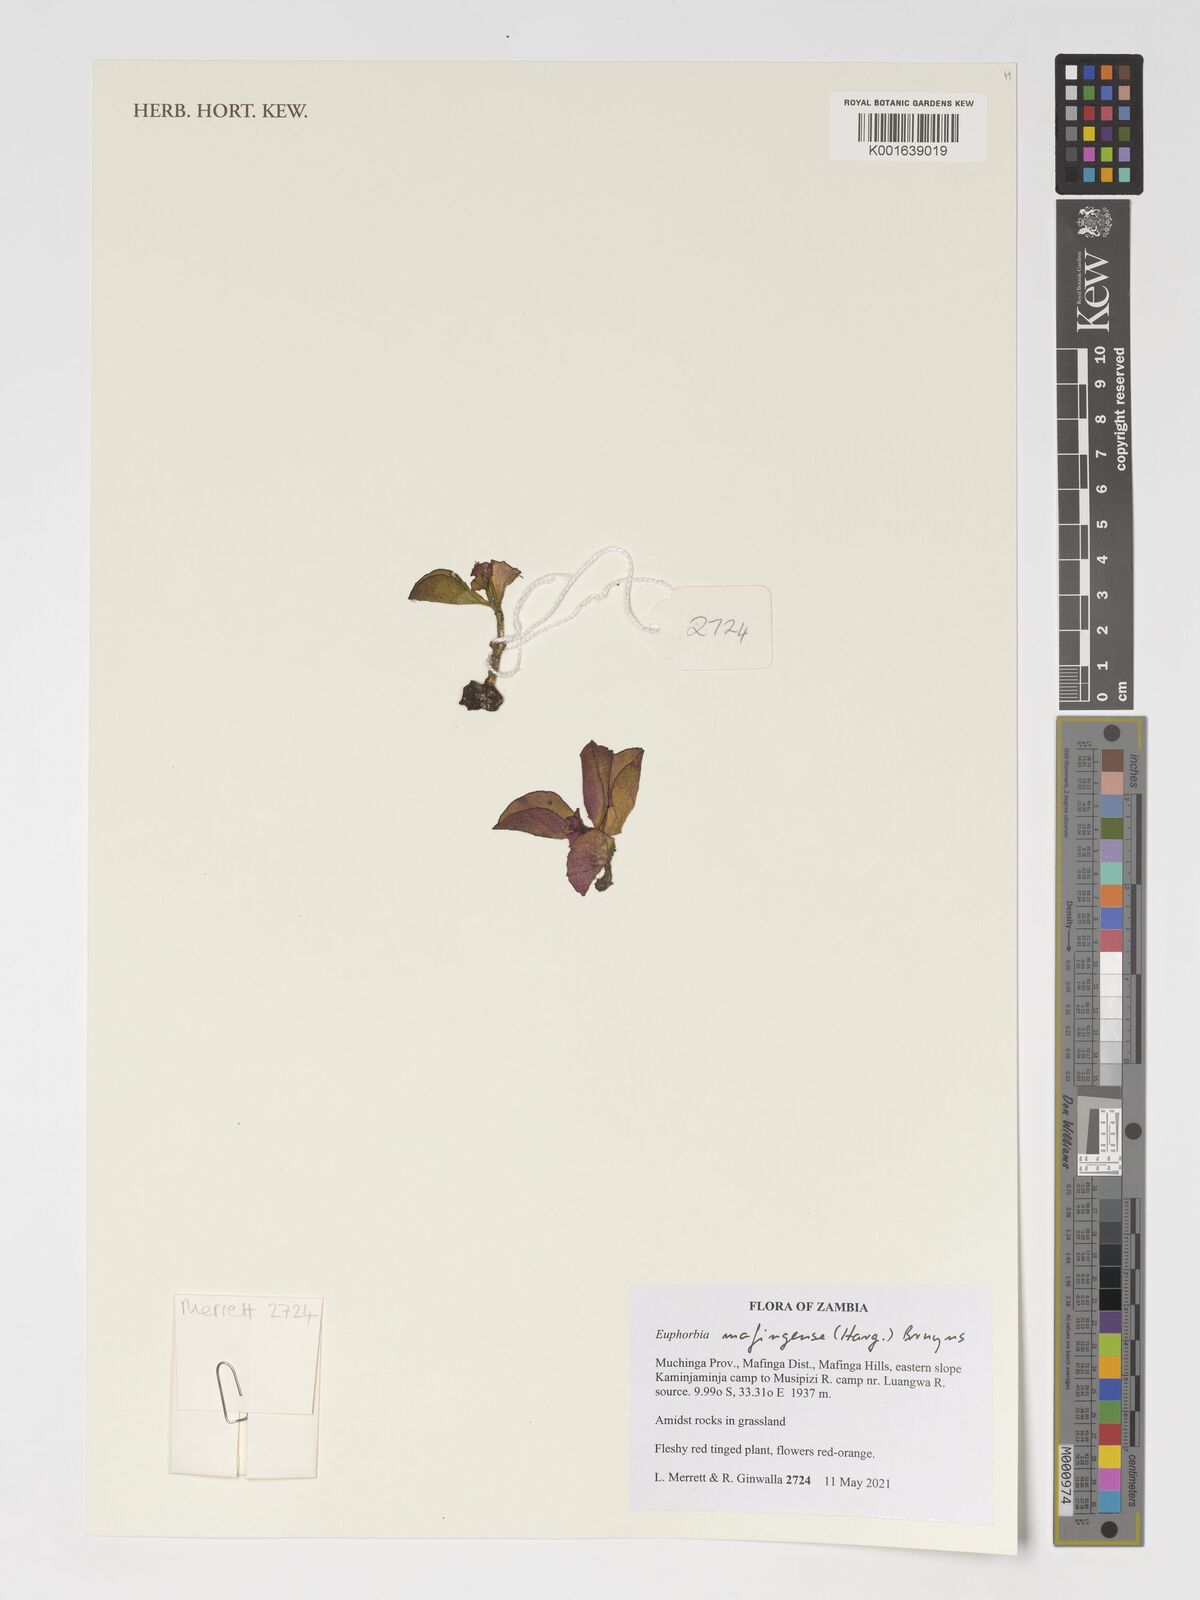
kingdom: Plantae
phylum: Tracheophyta
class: Magnoliopsida
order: Malpighiales
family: Euphorbiaceae
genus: Euphorbia
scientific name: Euphorbia mafingensis
